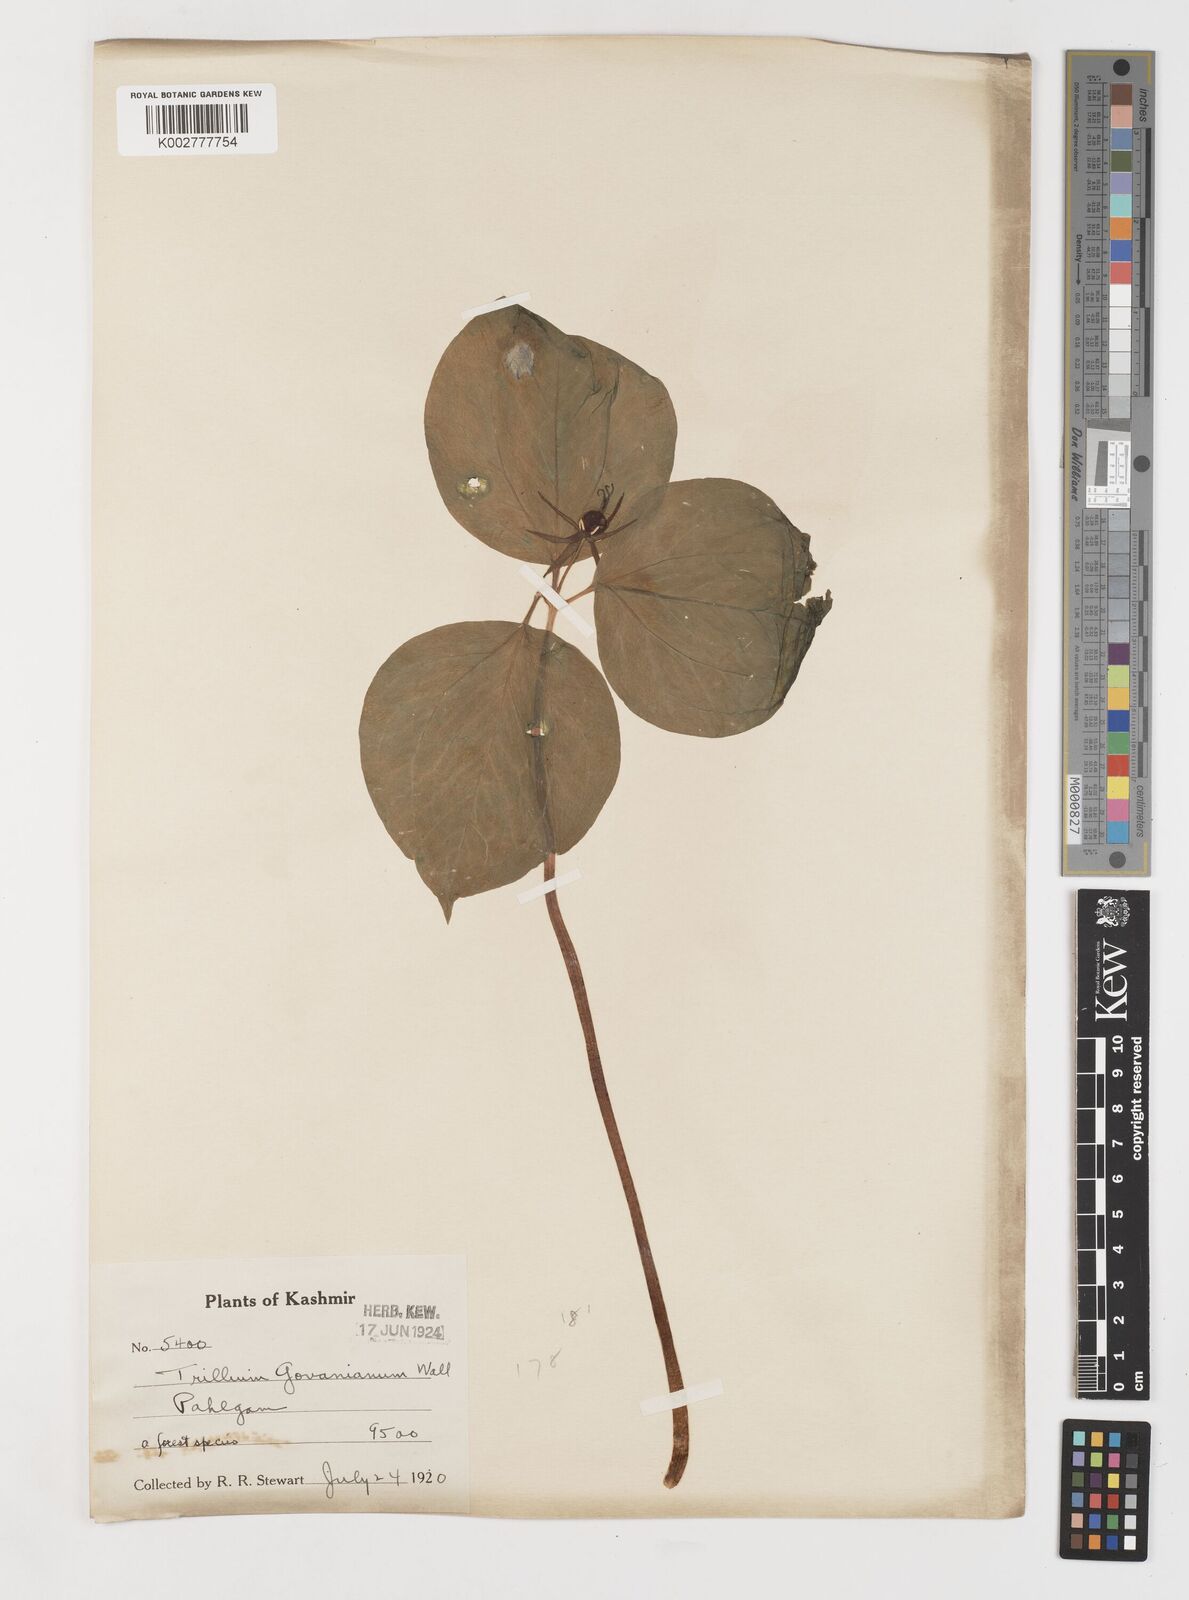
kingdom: Plantae
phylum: Tracheophyta
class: Liliopsida
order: Liliales
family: Melanthiaceae
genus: Trillium
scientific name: Trillium govanianum
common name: Himalayan trillium
